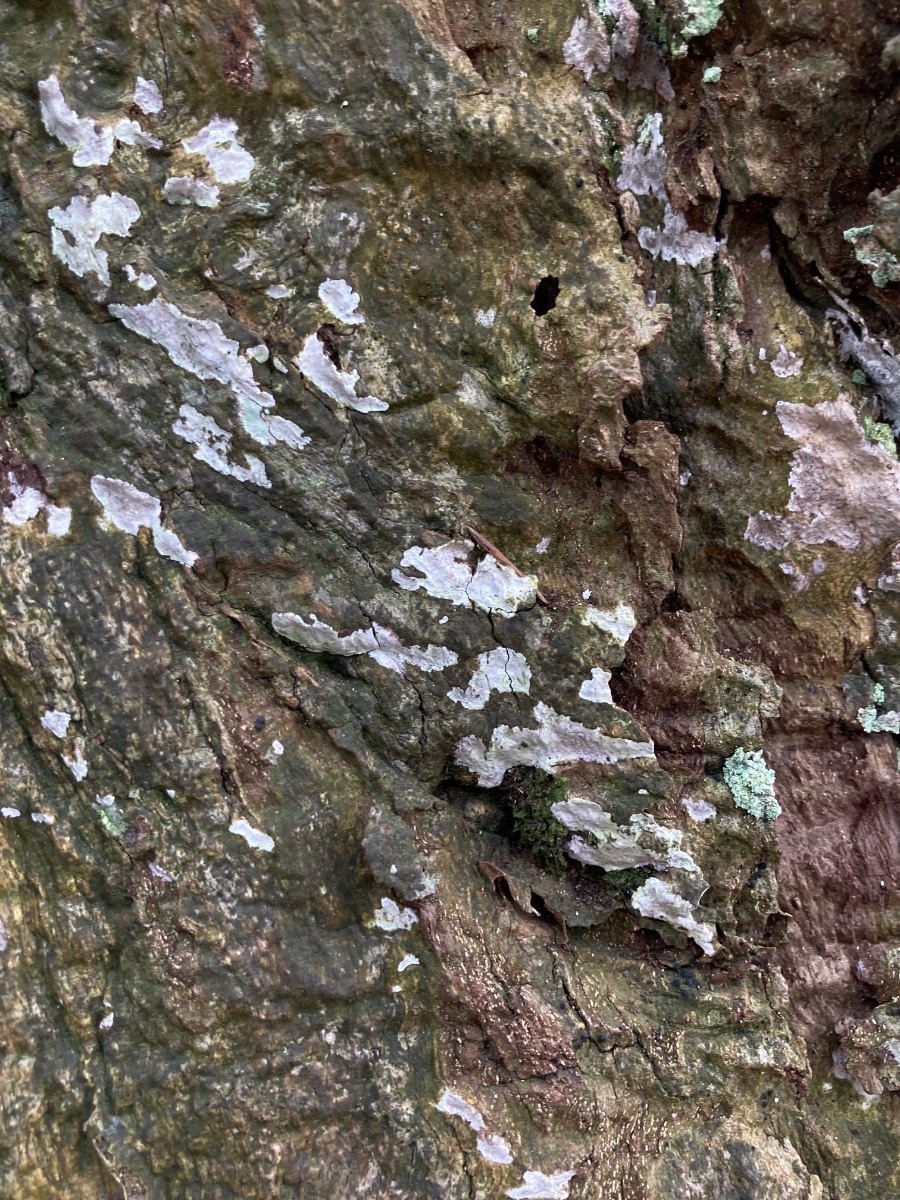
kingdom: Fungi
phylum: Ascomycota
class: Dothideomycetes
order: Pleosporales
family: Massariaceae
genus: Navicella
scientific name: Navicella pileata
